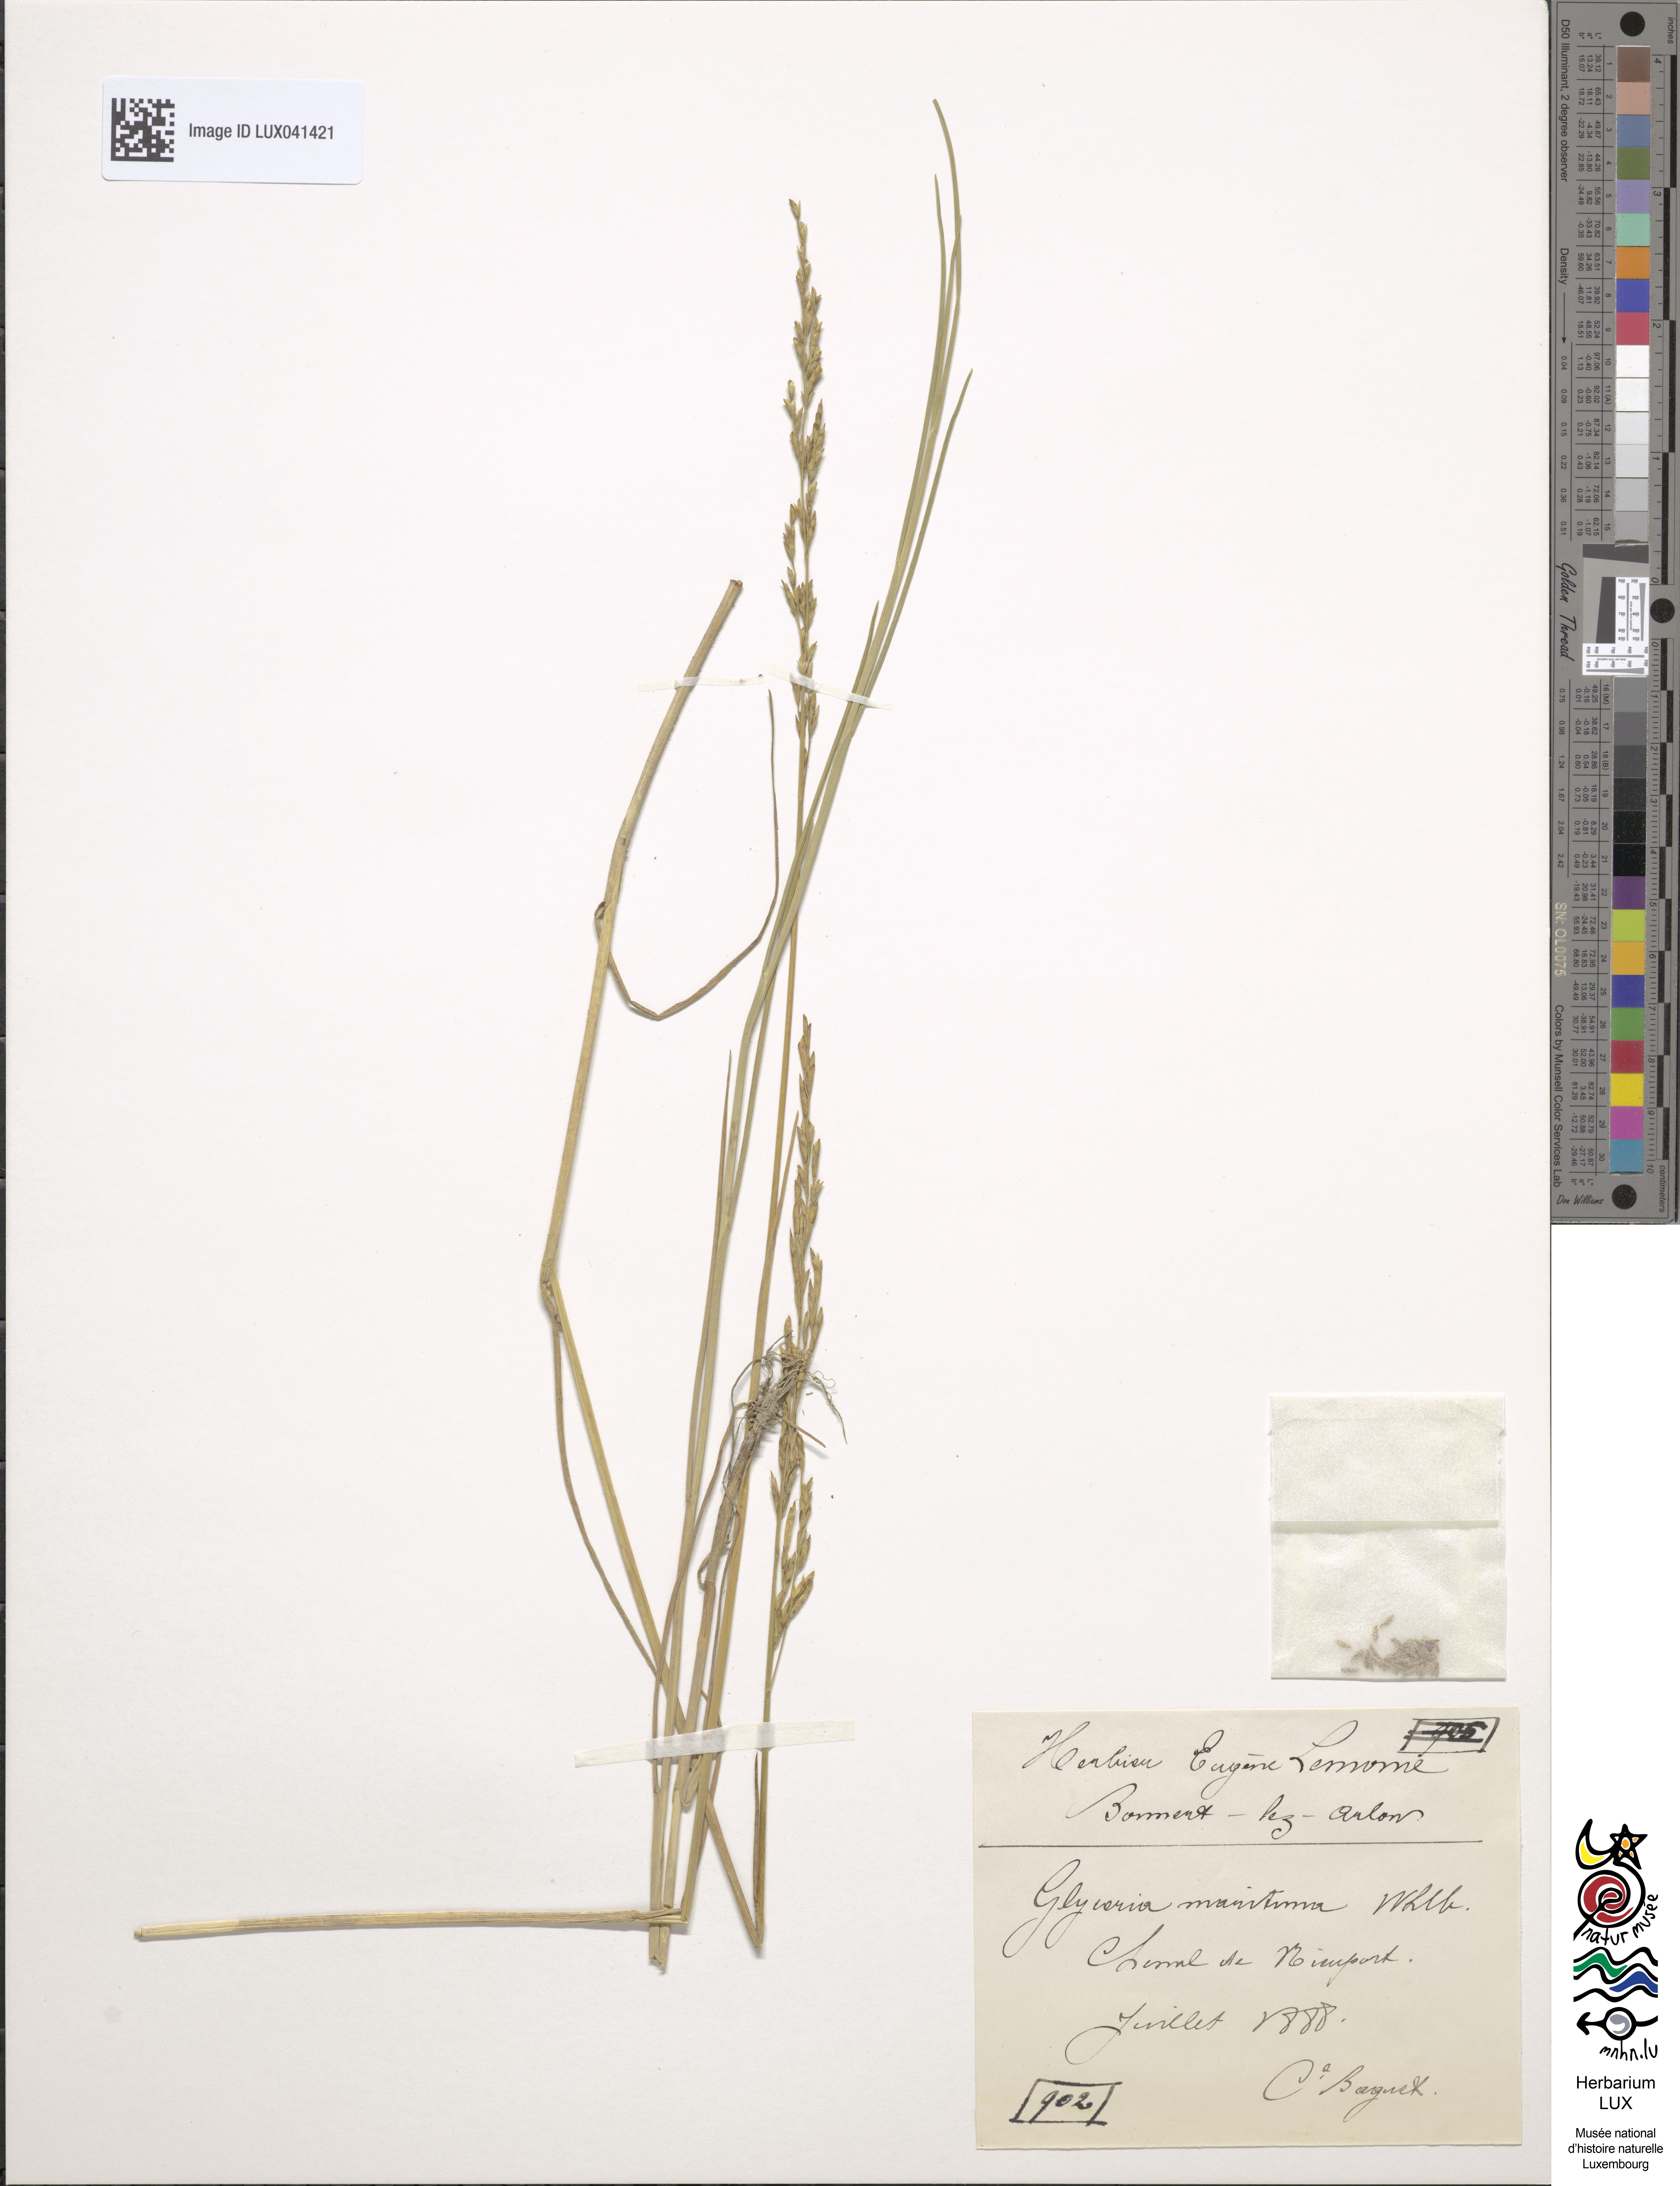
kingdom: Plantae
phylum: Tracheophyta
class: Liliopsida
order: Poales
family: Poaceae
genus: Puccinellia
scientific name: Puccinellia maritima
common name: Common saltmarsh grass
